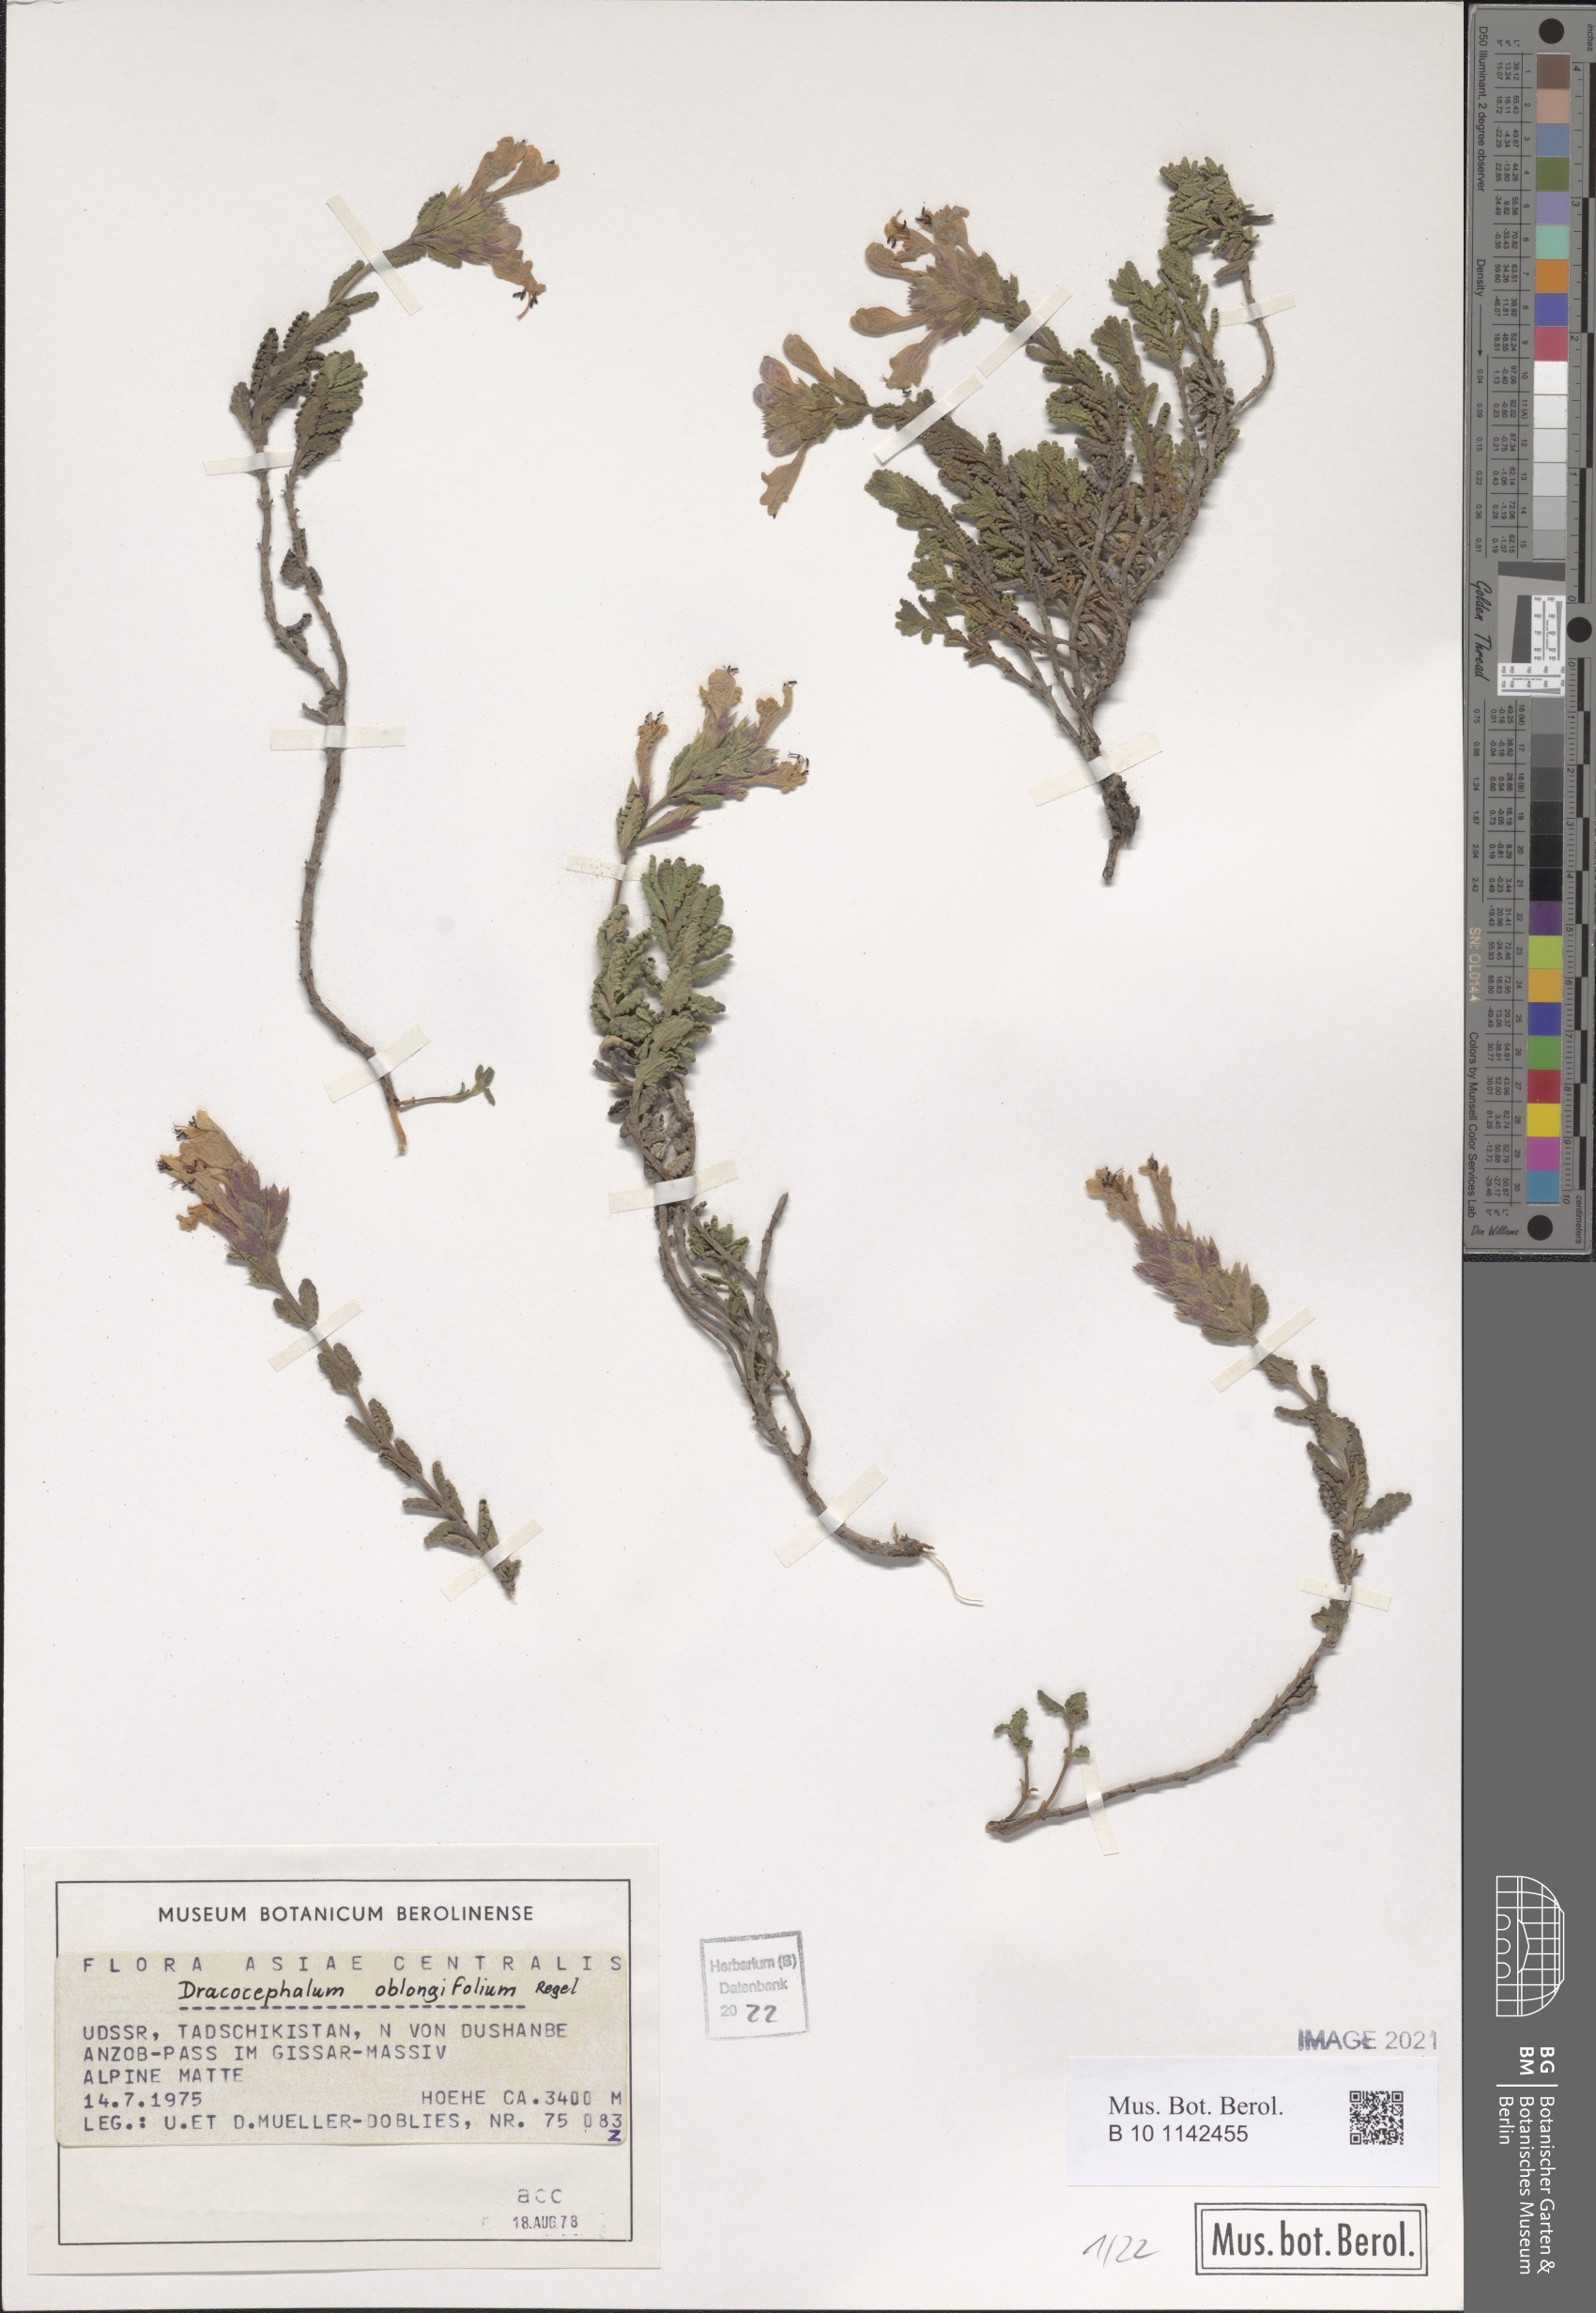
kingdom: Plantae
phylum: Tracheophyta
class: Magnoliopsida
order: Lamiales
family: Lamiaceae
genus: Dracocephalum
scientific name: Dracocephalum oblongifolium
